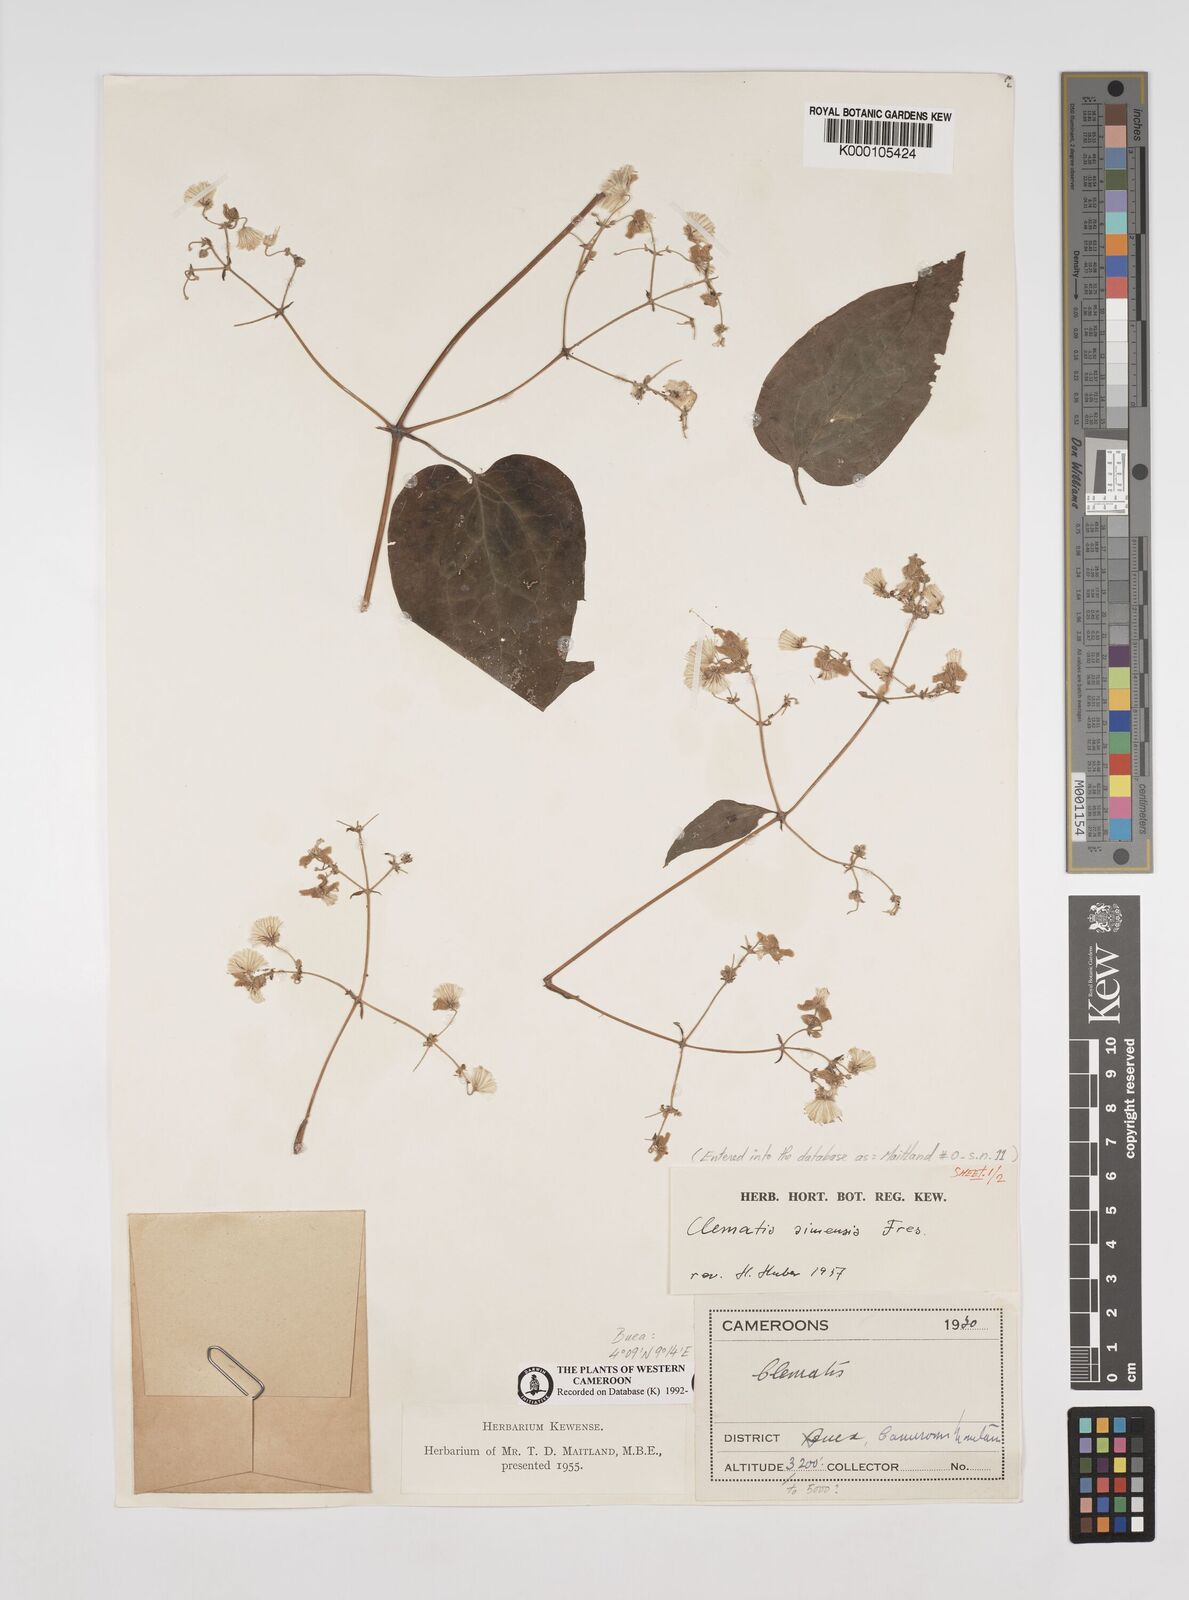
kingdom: Plantae
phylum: Tracheophyta
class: Magnoliopsida
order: Ranunculales
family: Ranunculaceae
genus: Clematis
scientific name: Clematis simensis
